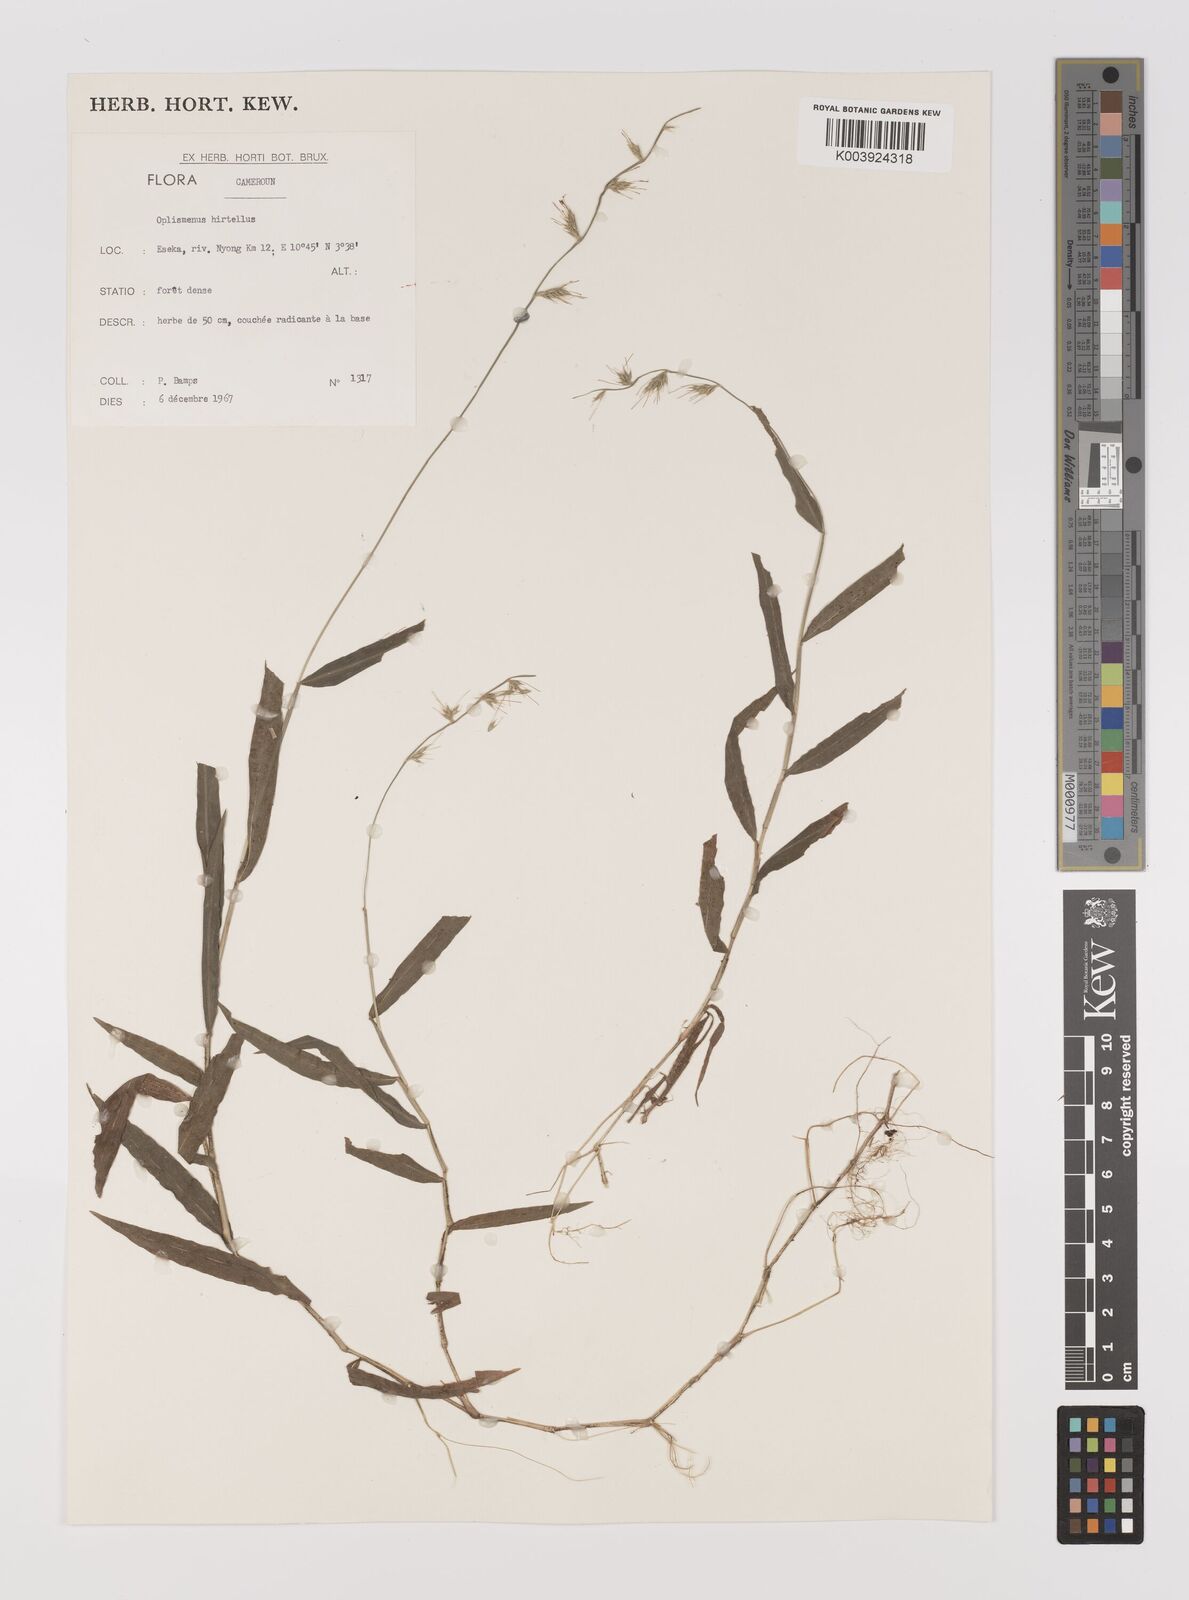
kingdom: Plantae
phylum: Tracheophyta
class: Liliopsida
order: Poales
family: Poaceae
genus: Oplismenus
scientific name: Oplismenus hirtellus
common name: Basketgrass
